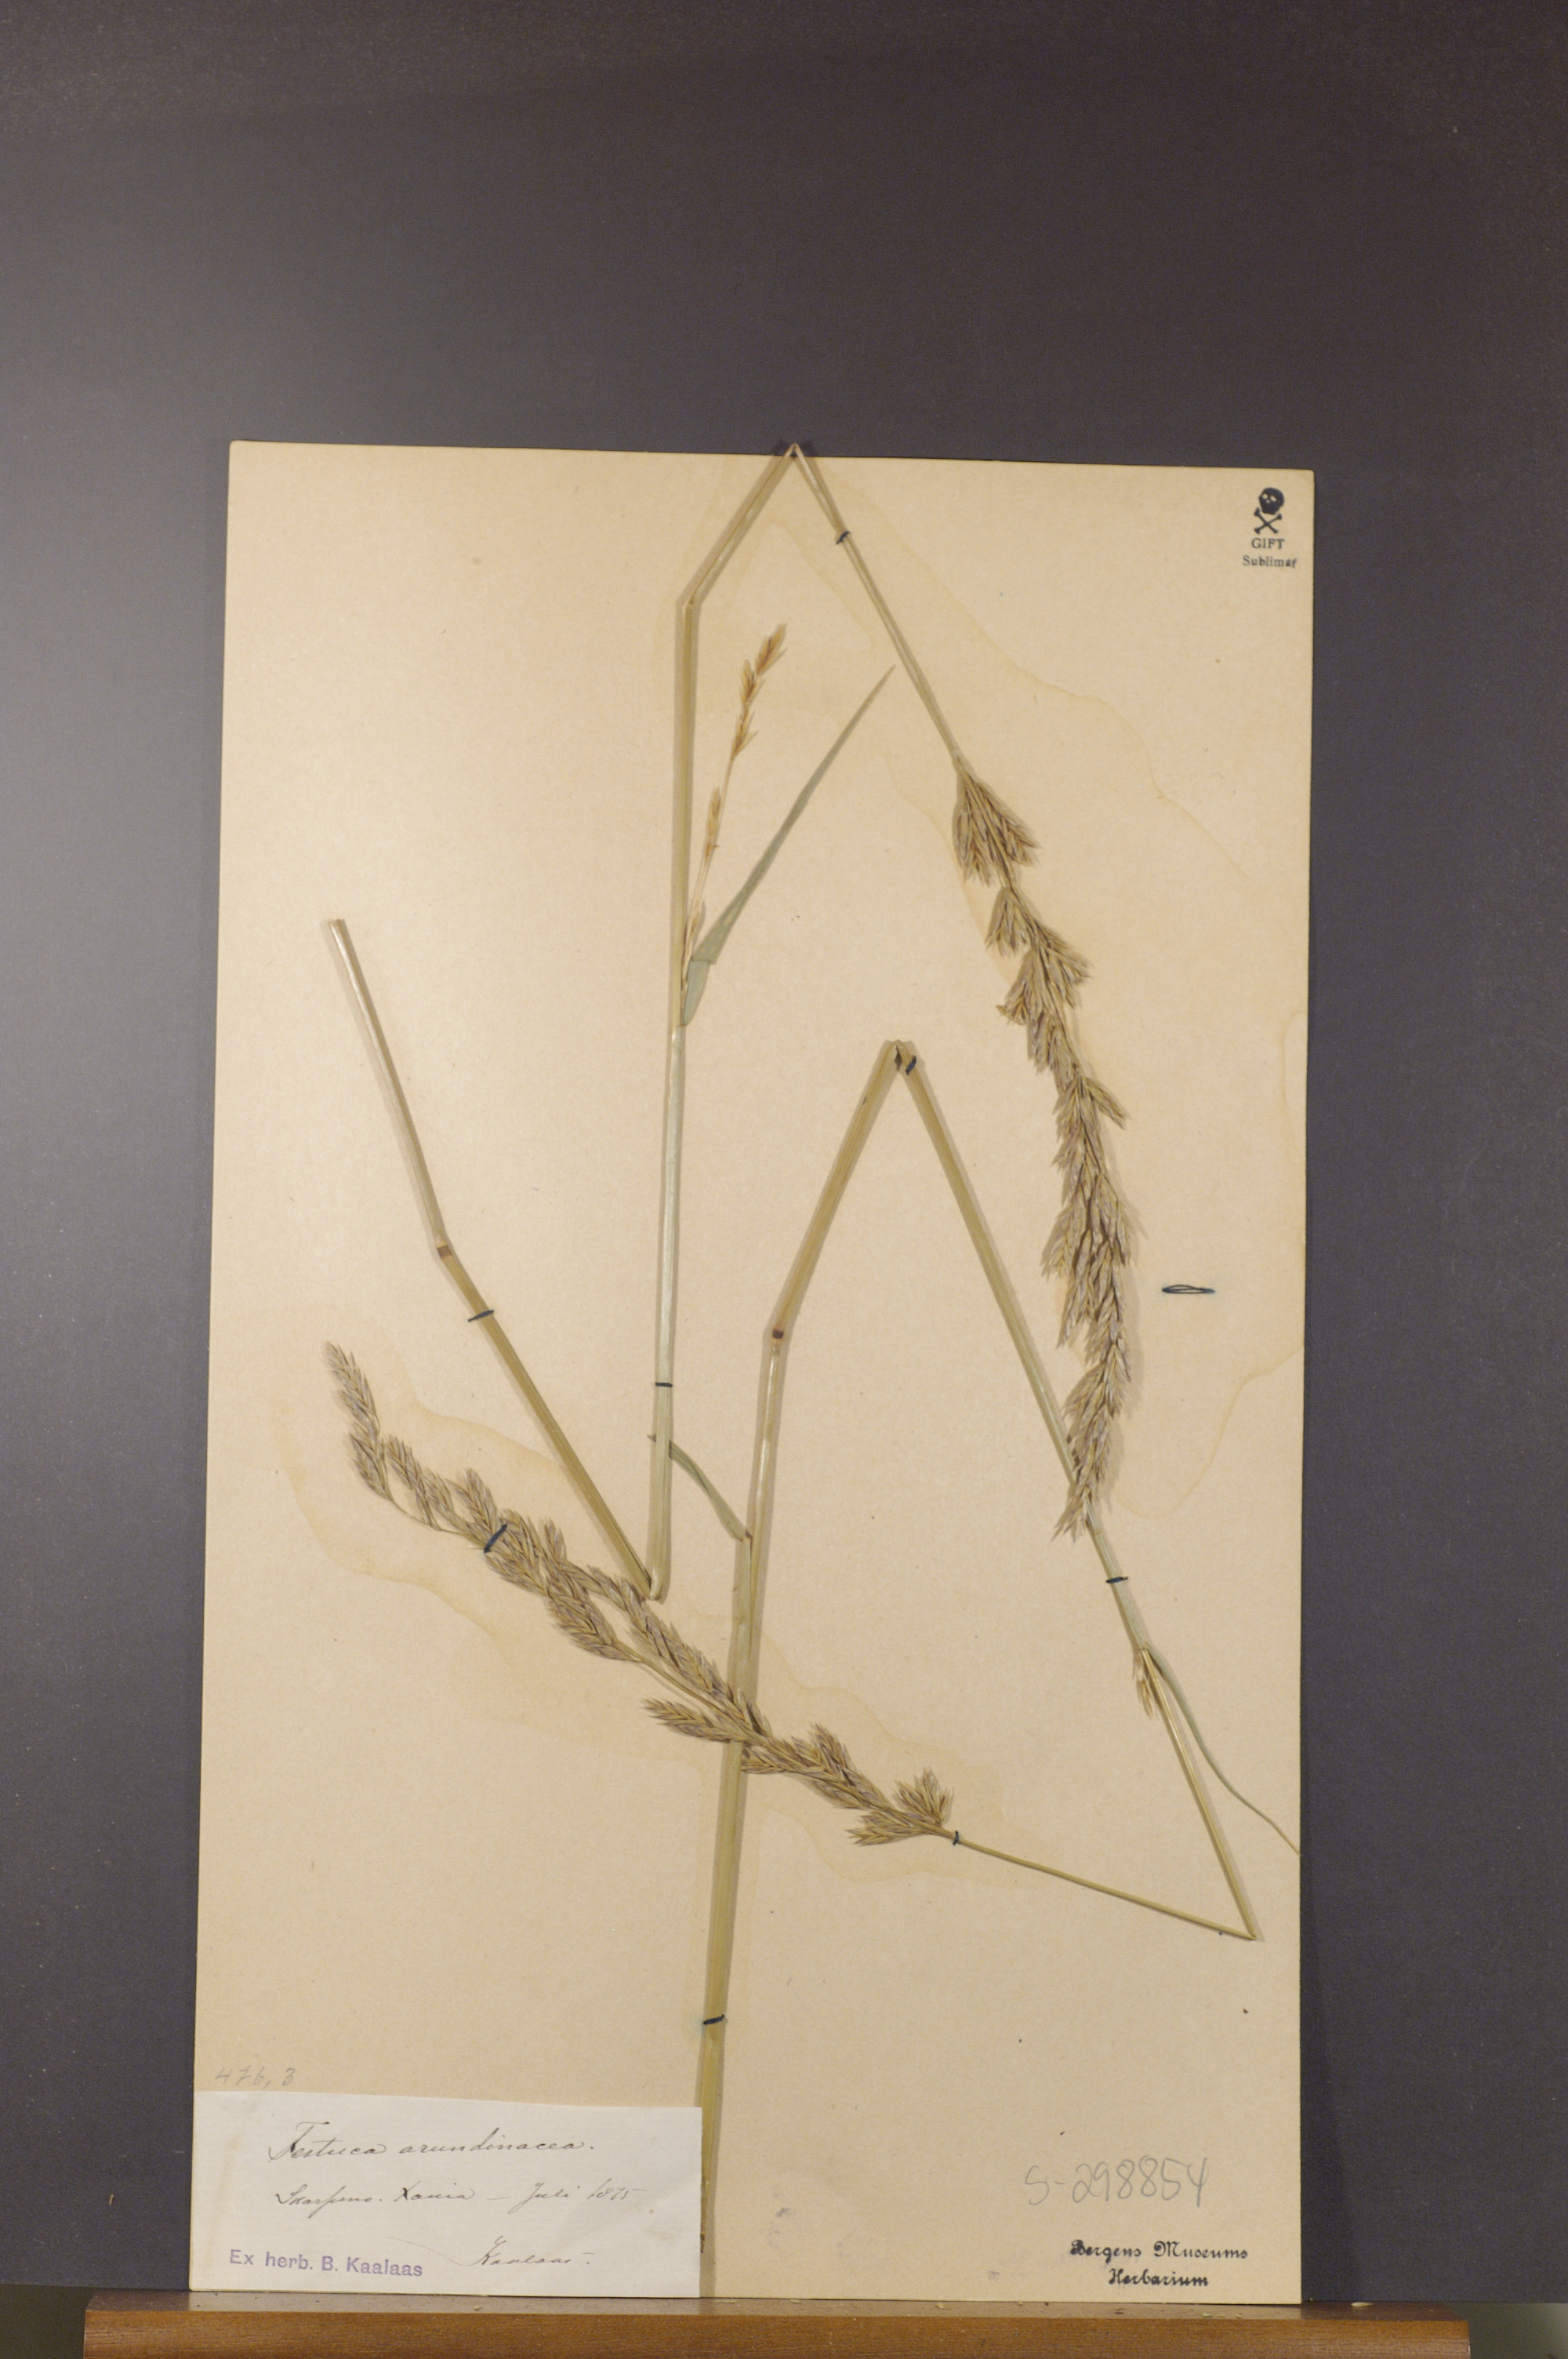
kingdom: Plantae
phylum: Tracheophyta
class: Liliopsida
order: Poales
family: Poaceae
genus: Lolium
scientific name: Lolium arundinaceum
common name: Reed fescue
